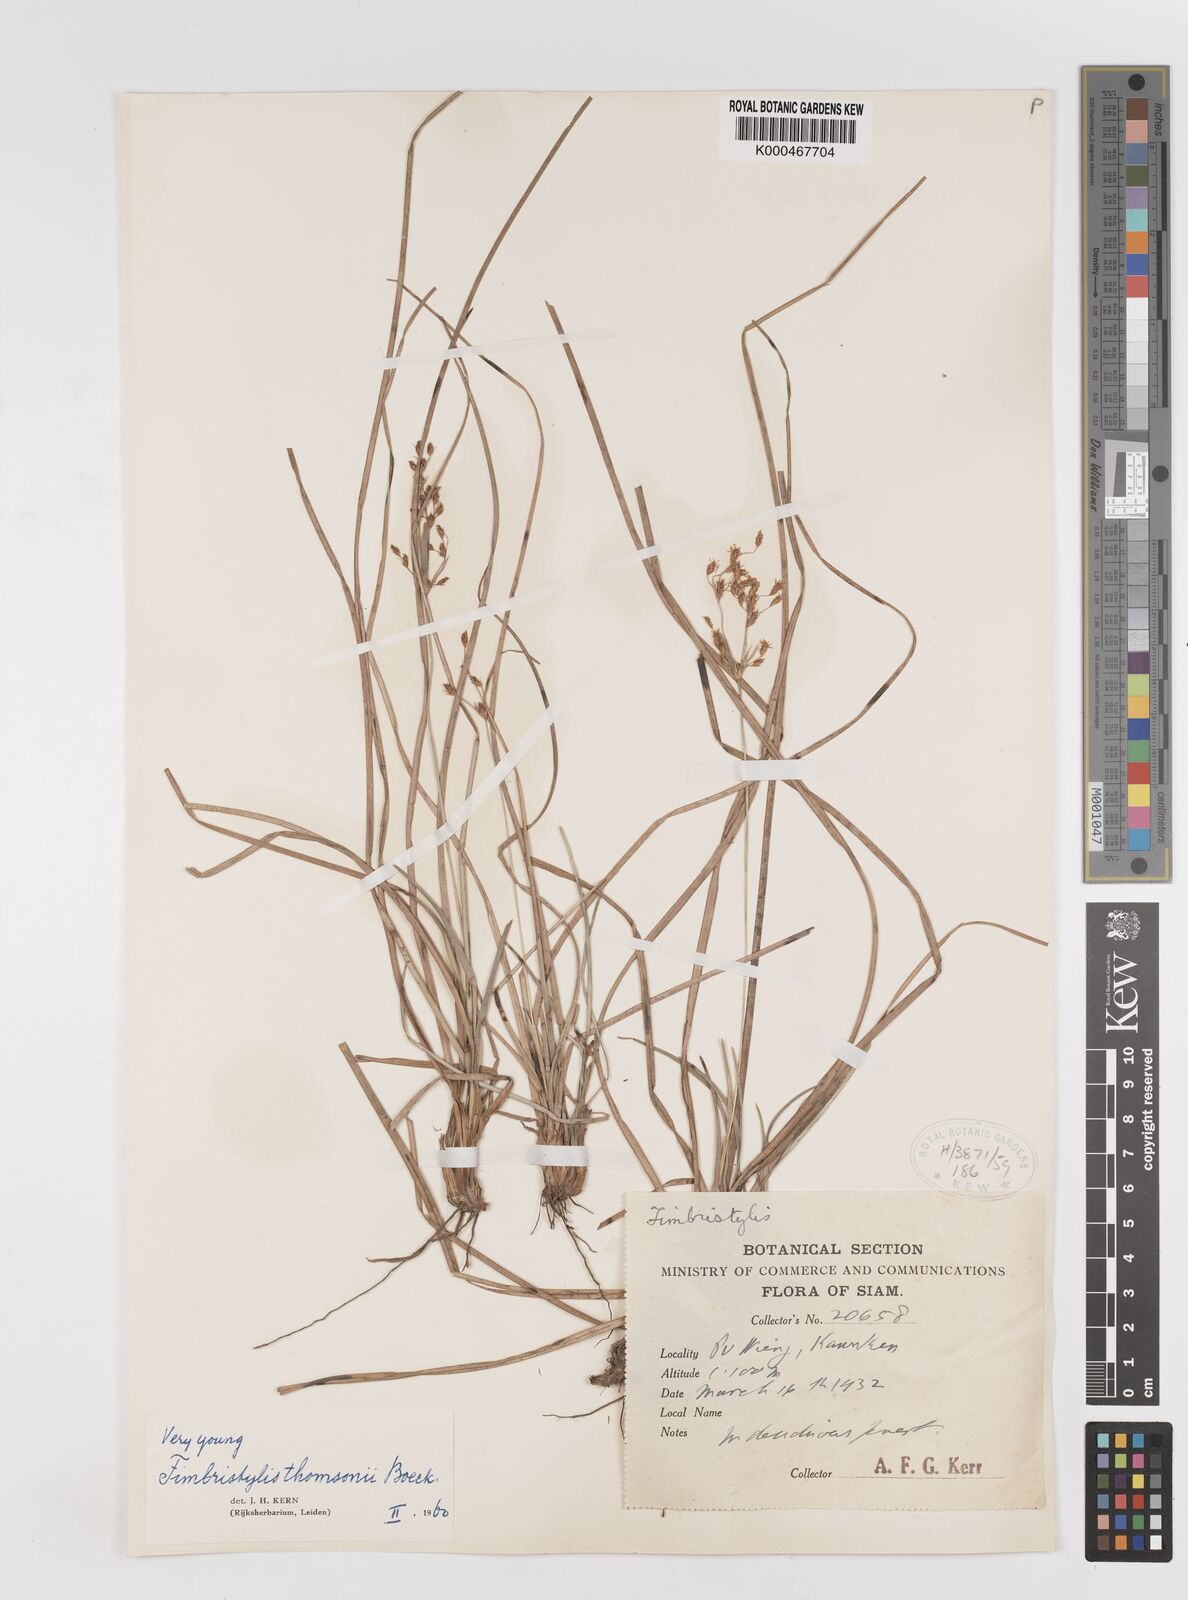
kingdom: Plantae
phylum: Tracheophyta
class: Liliopsida
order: Poales
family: Cyperaceae
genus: Fimbristylis
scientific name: Fimbristylis thomsonii
